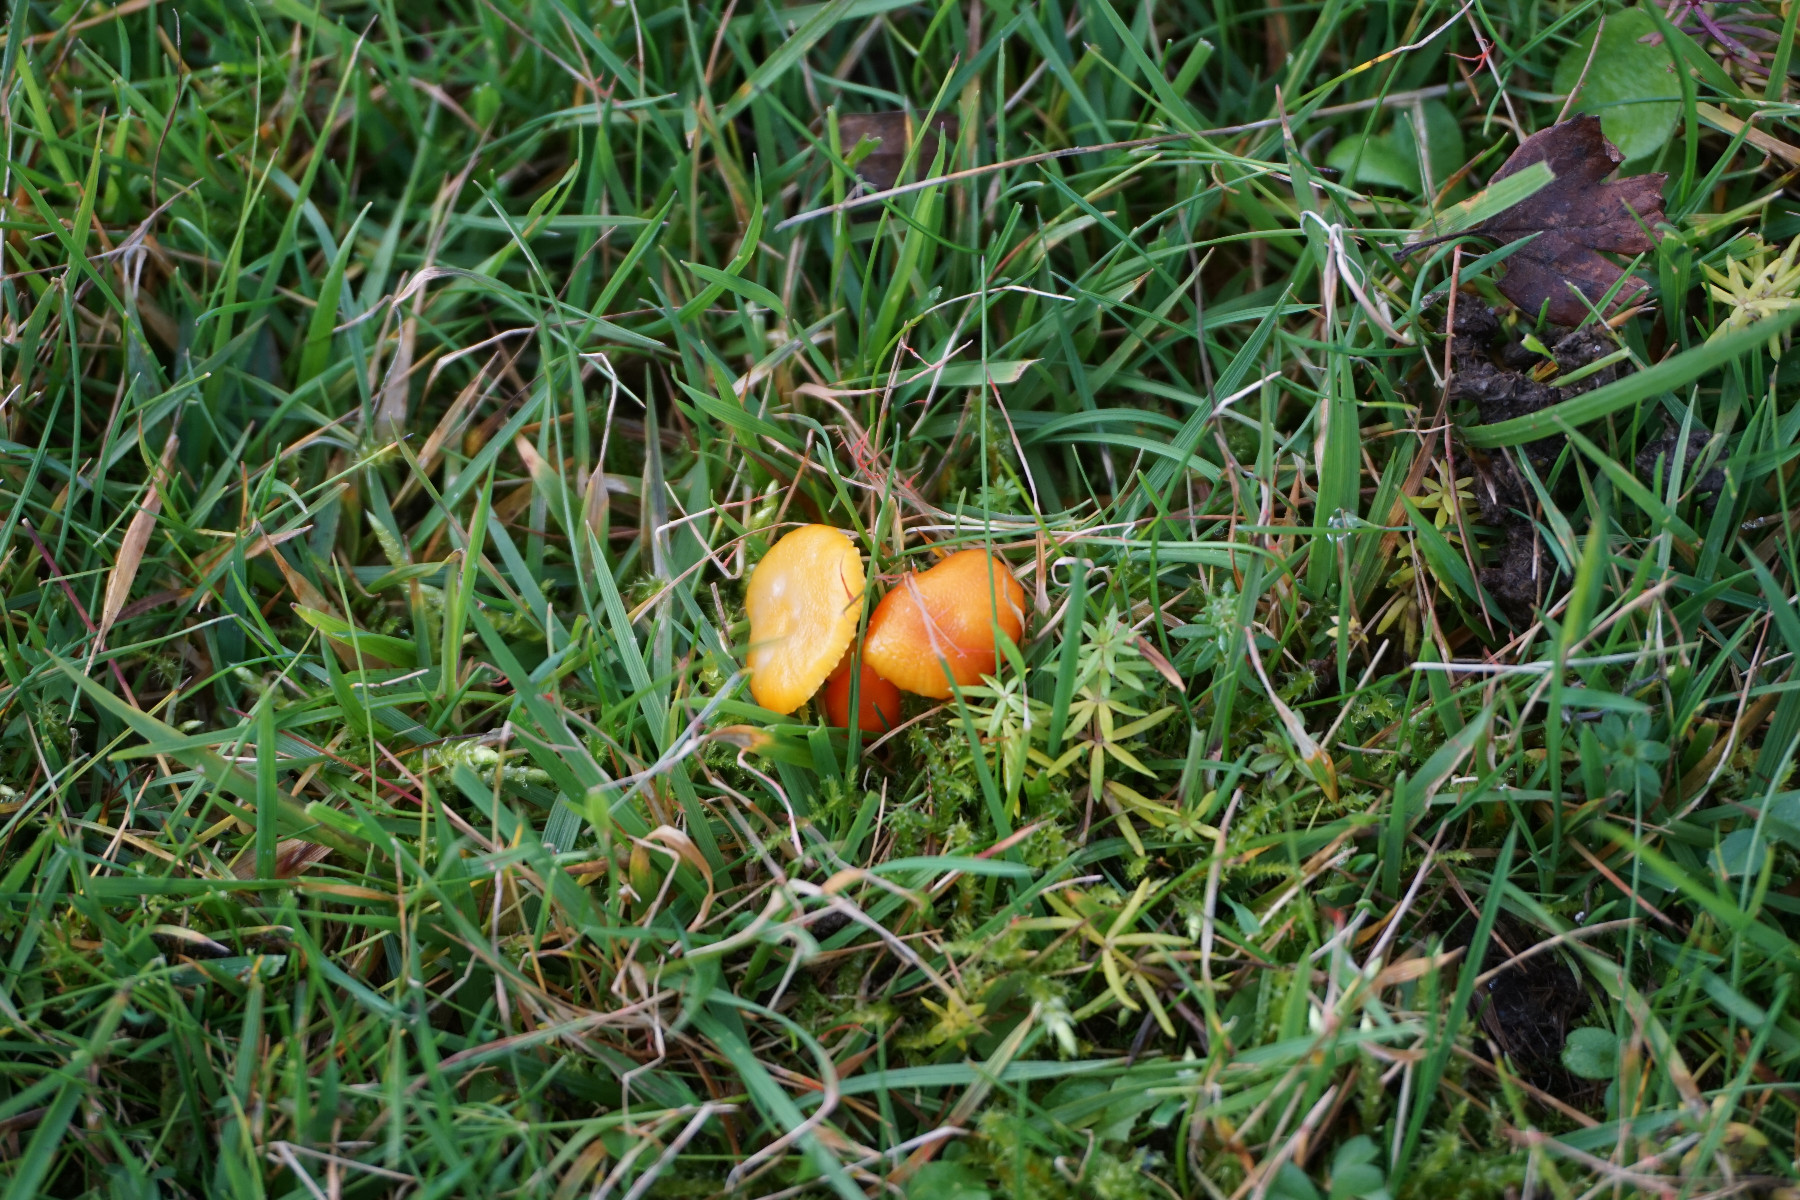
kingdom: Fungi
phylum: Basidiomycota
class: Agaricomycetes
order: Agaricales
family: Hygrophoraceae
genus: Hygrocybe
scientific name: Hygrocybe
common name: vokshat
